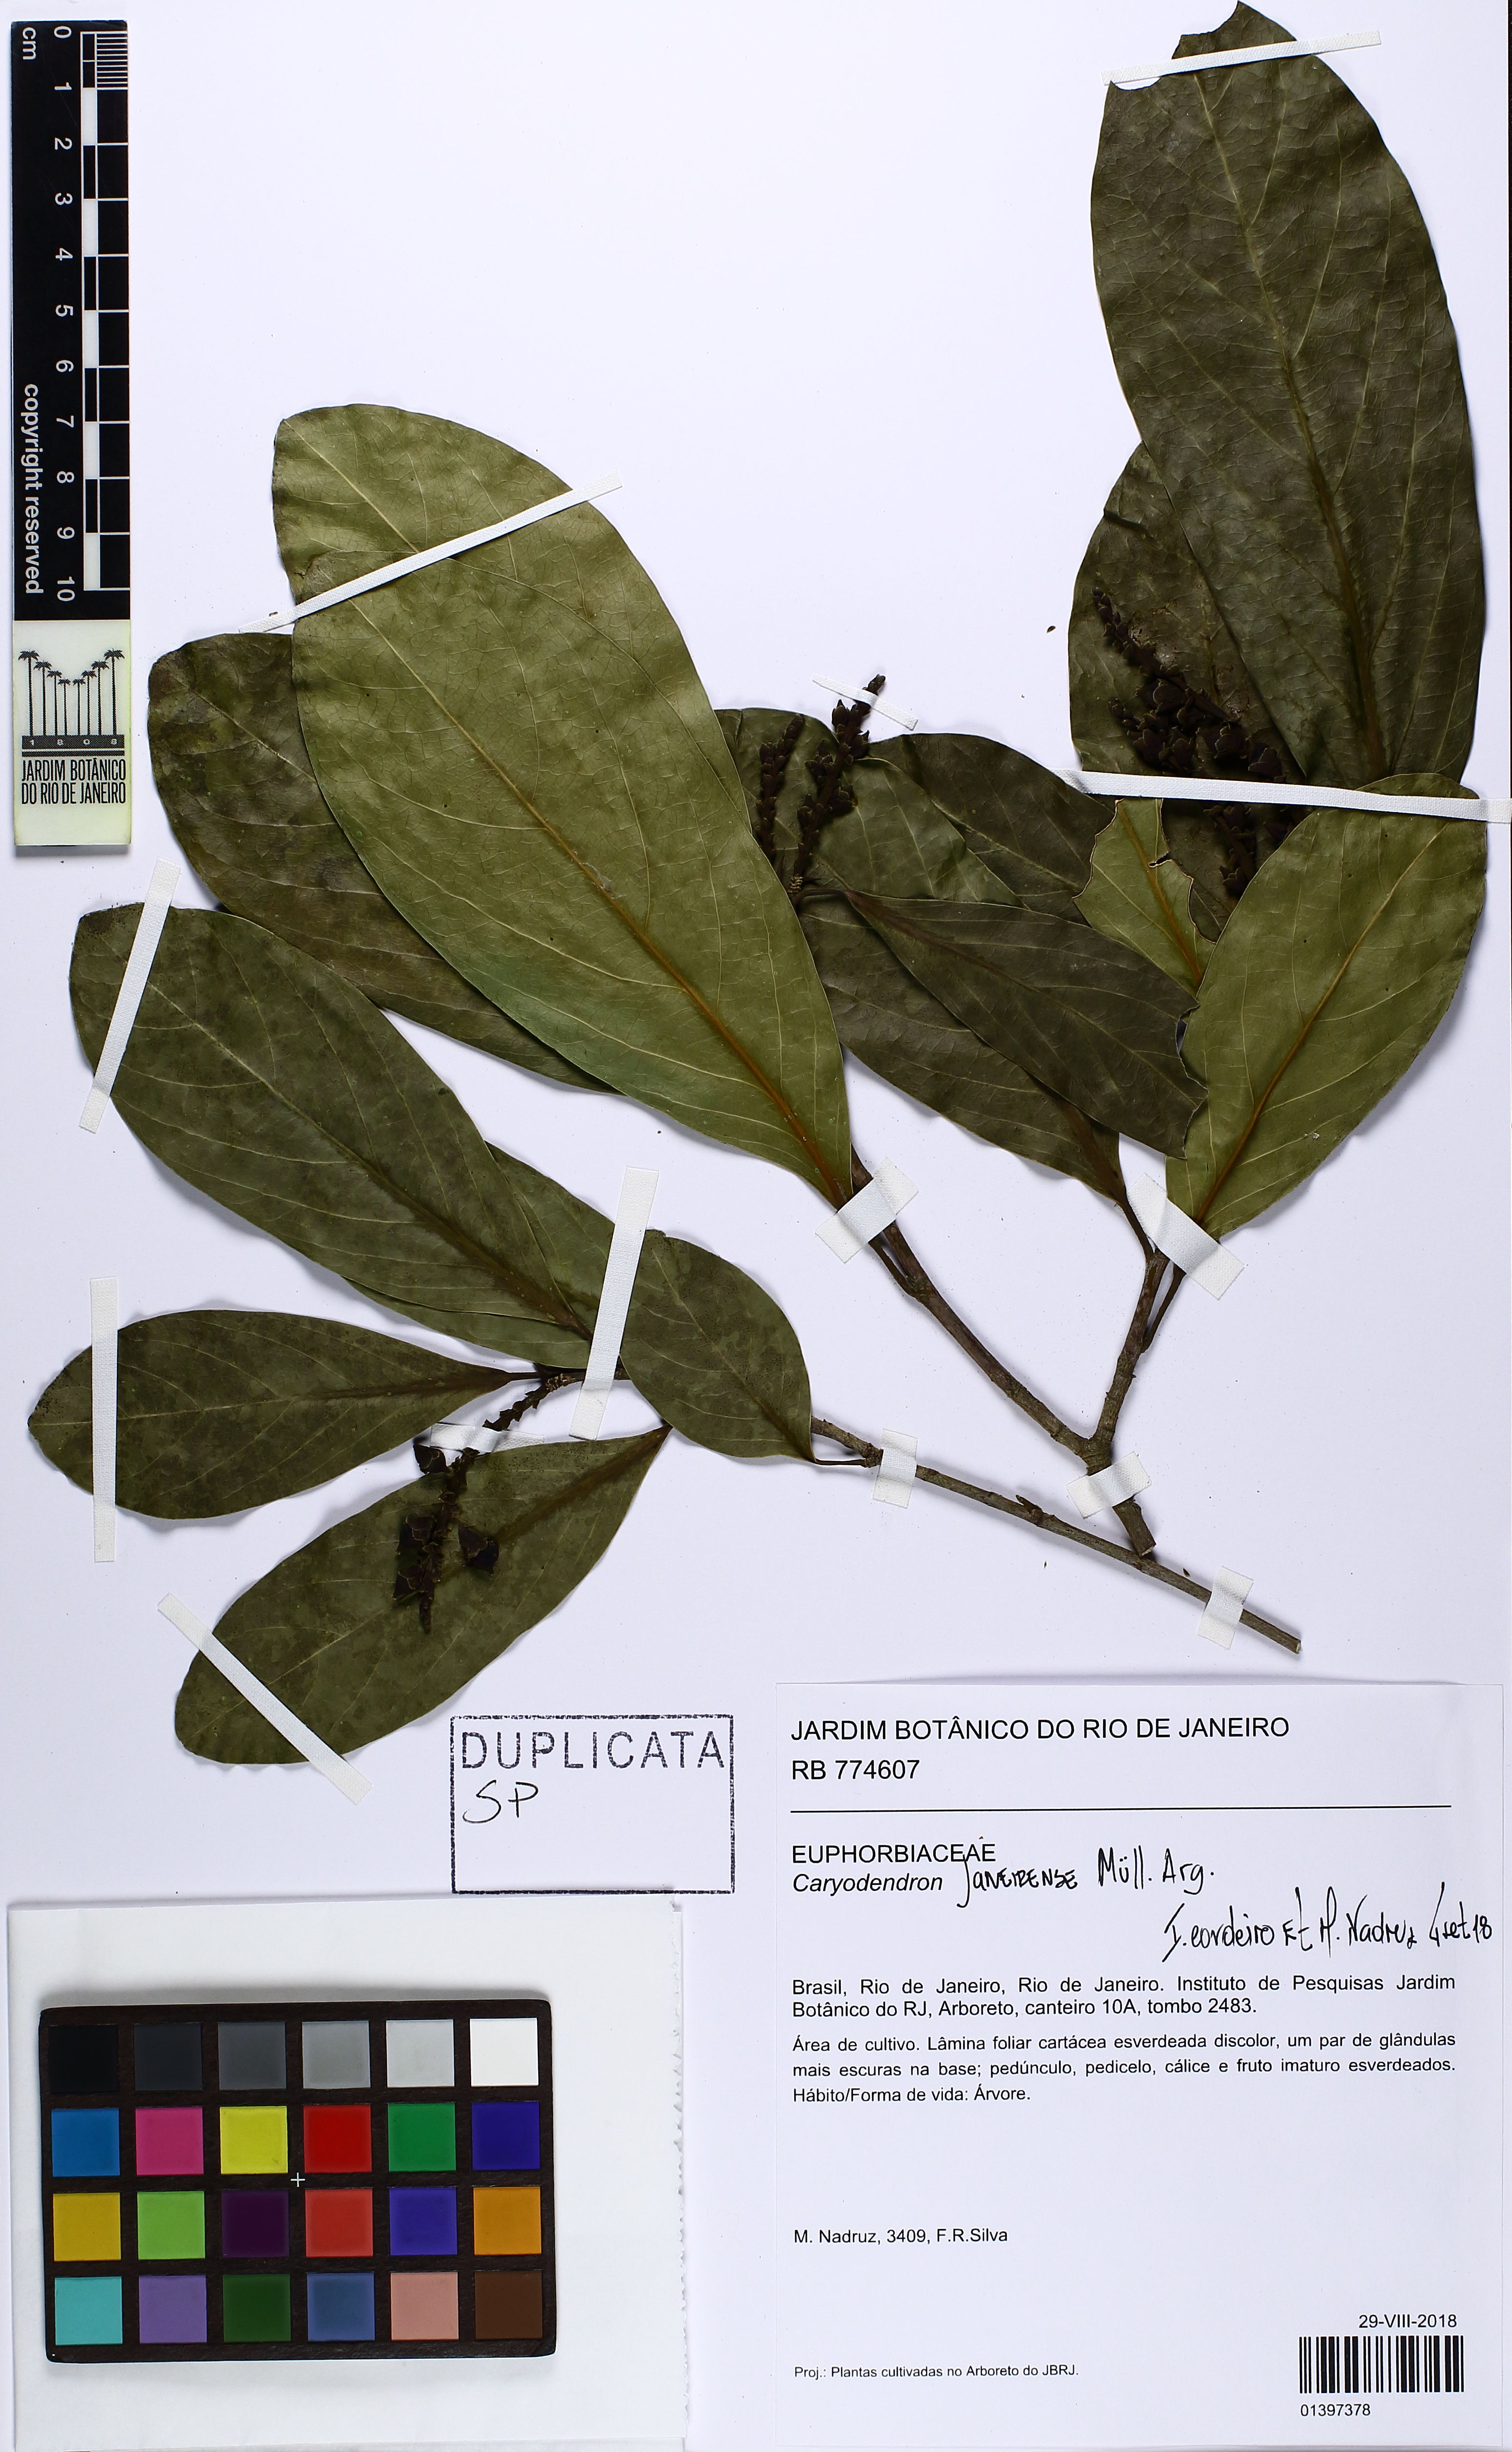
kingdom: Plantae
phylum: Tracheophyta
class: Magnoliopsida
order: Malpighiales
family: Euphorbiaceae
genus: Caryodendron
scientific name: Caryodendron janeirense
